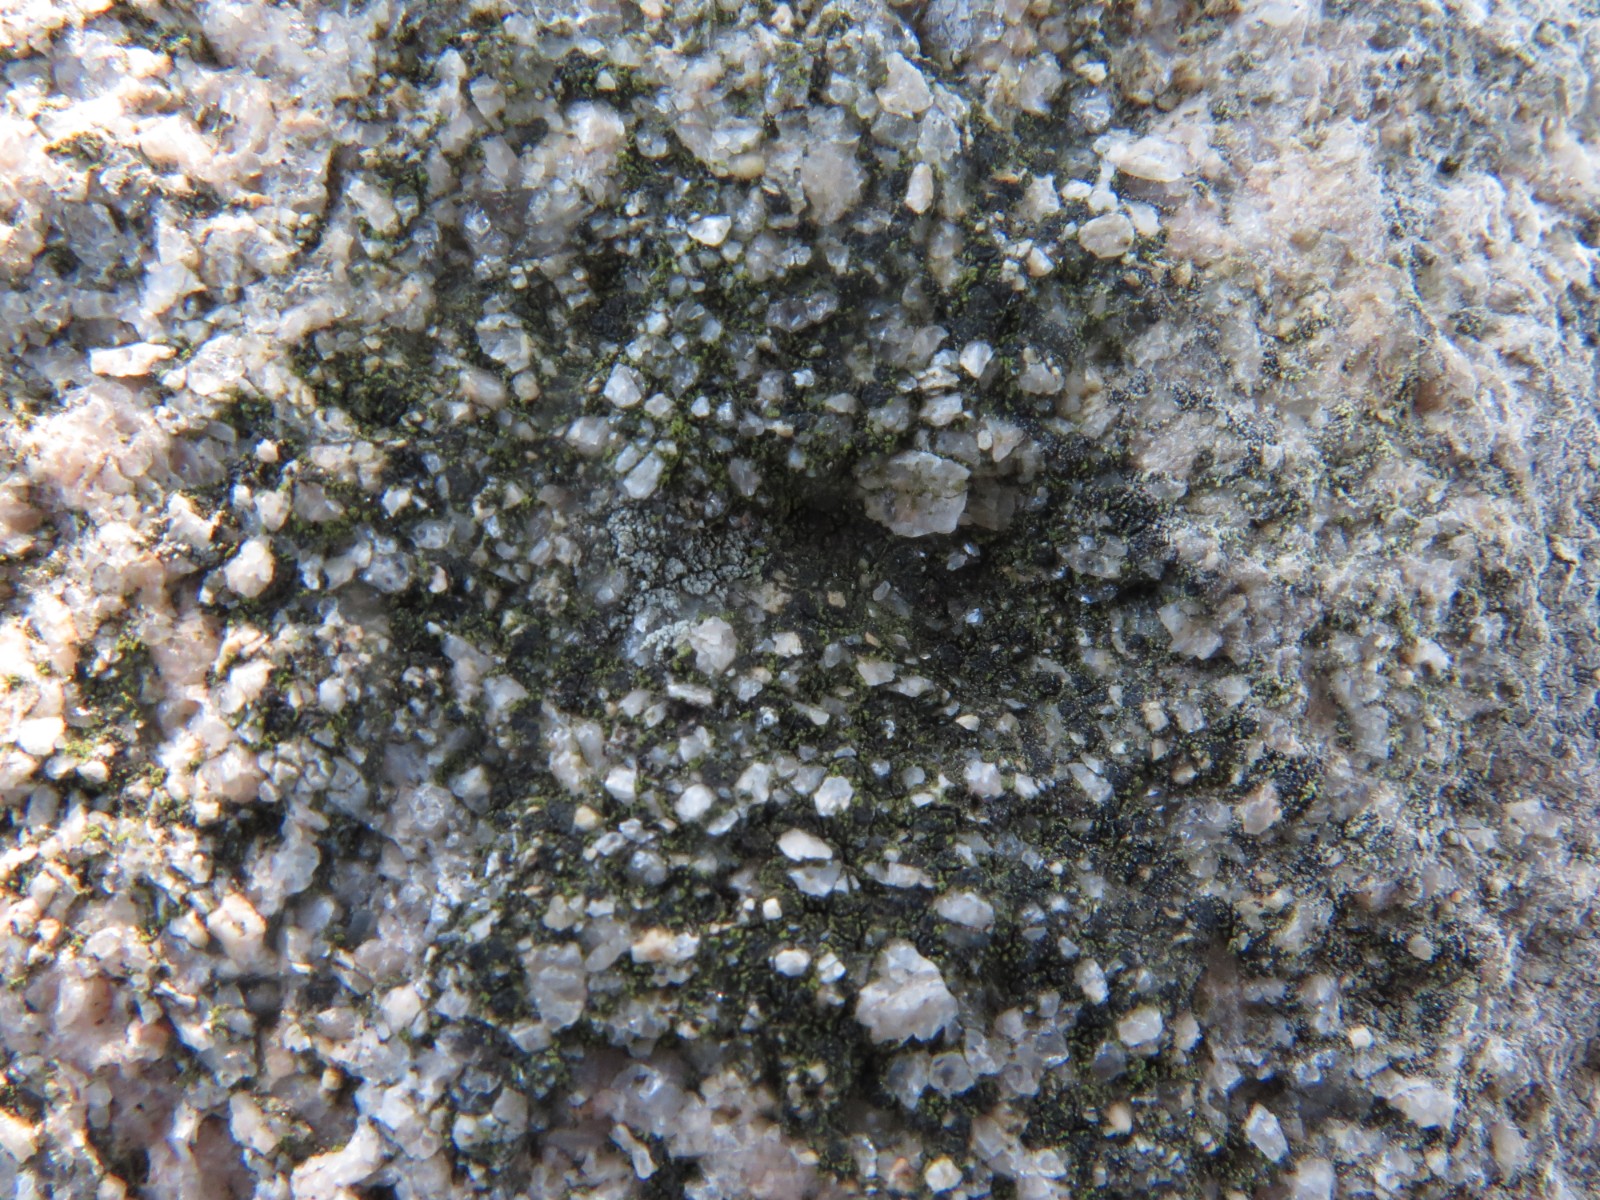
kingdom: Fungi
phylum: Ascomycota
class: Lecanoromycetes
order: Acarosporales
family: Acarosporaceae
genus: Acarospora
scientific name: Acarospora privigna
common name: sort foldekantlav
